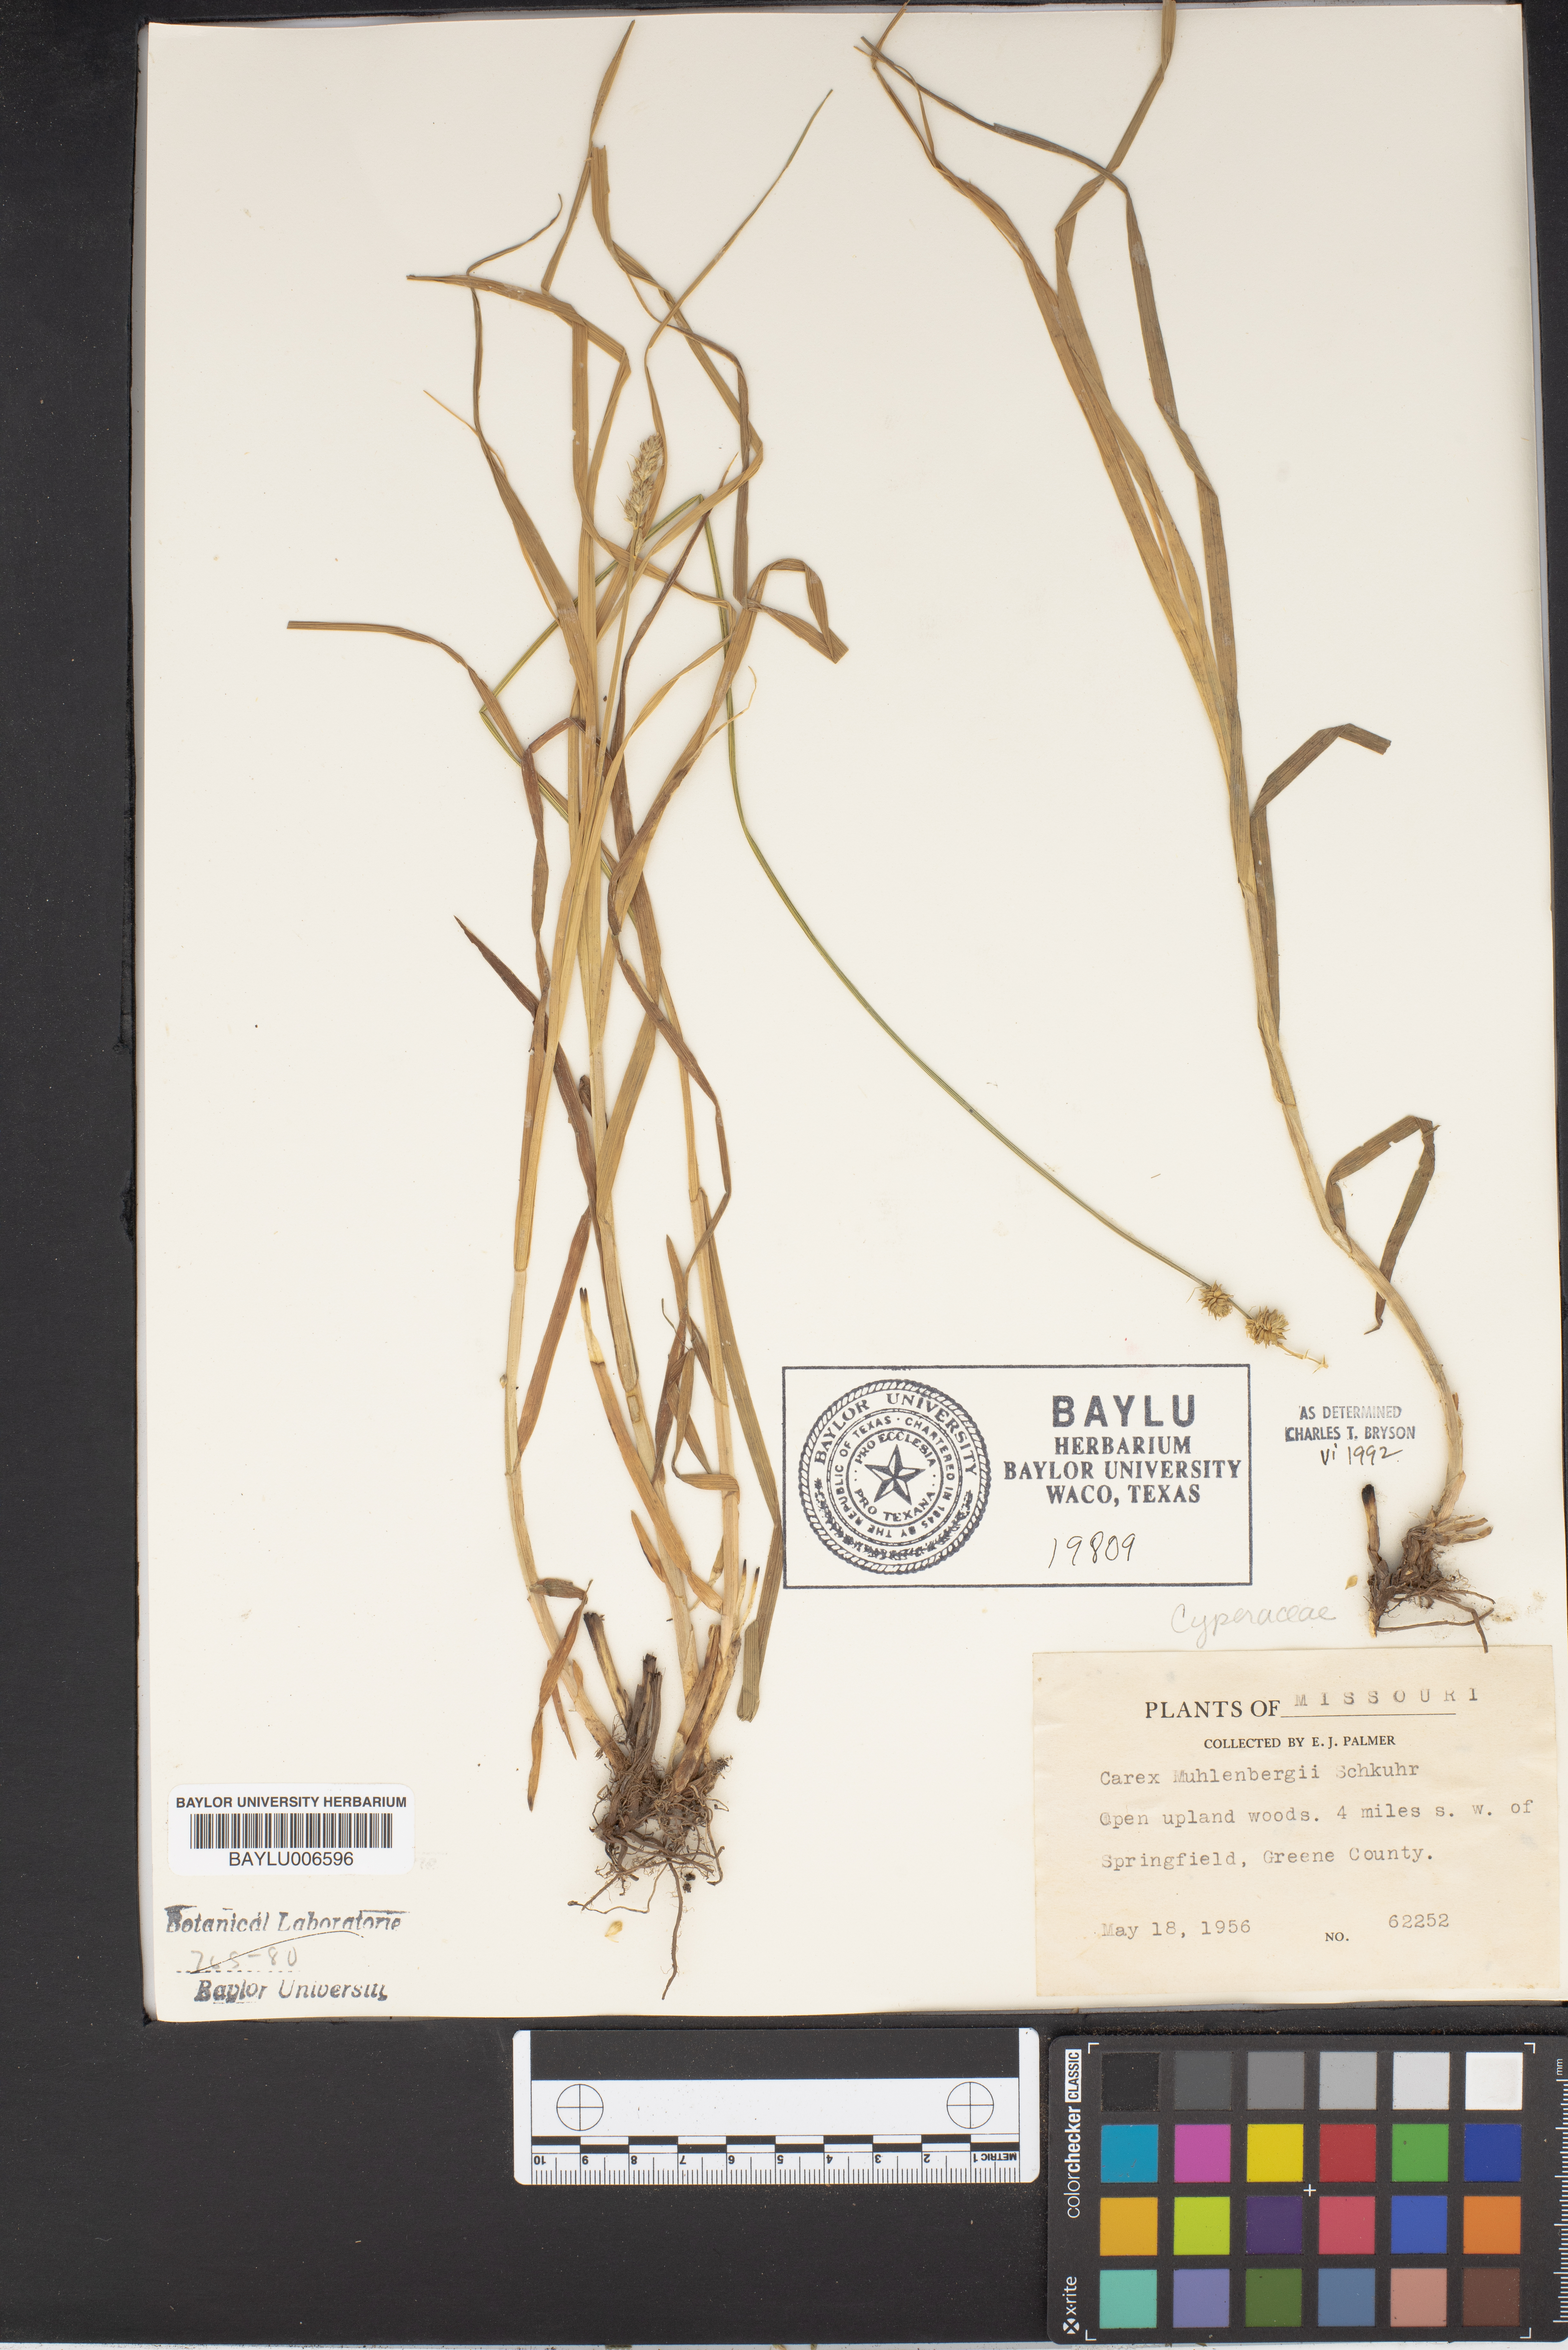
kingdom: Plantae
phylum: Tracheophyta
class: Liliopsida
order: Poales
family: Cyperaceae
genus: Carex
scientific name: Carex muehlenbergii
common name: Muhlenberg's bracted sedge
